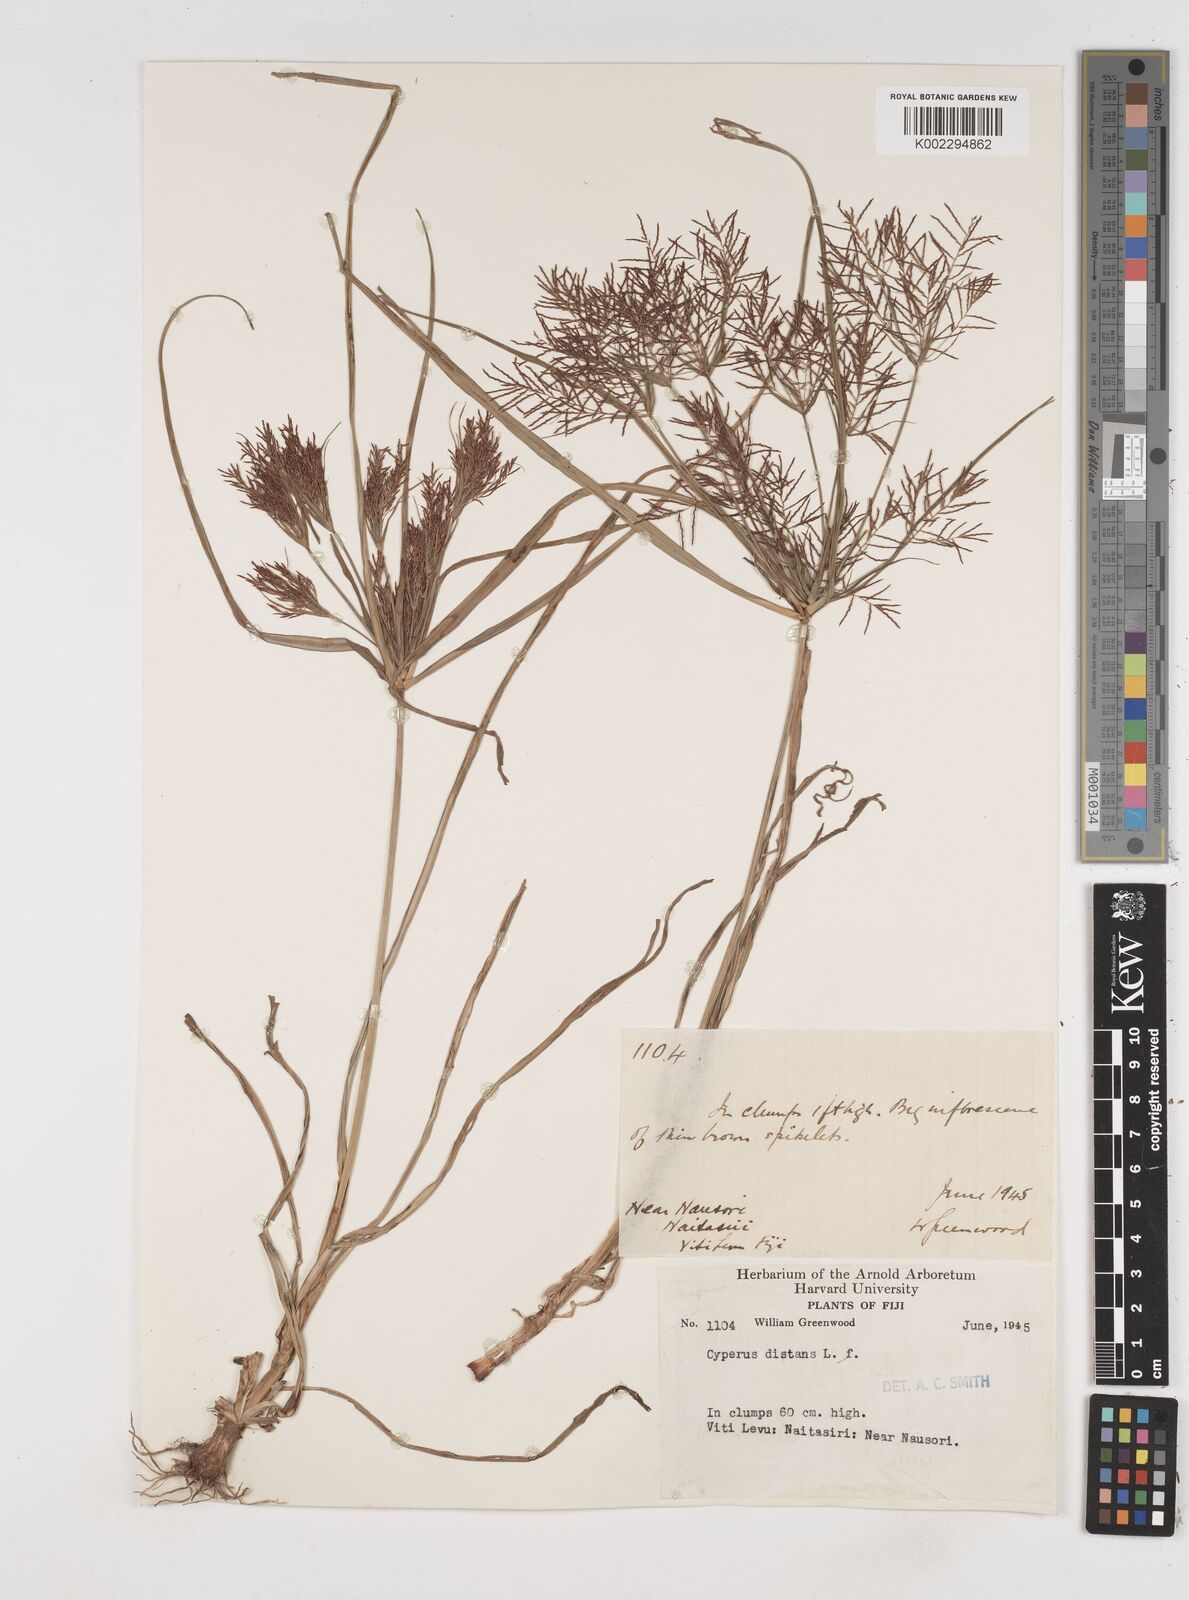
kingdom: Plantae
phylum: Tracheophyta
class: Liliopsida
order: Poales
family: Cyperaceae
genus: Cyperus
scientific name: Cyperus distans
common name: Slender cyperus
